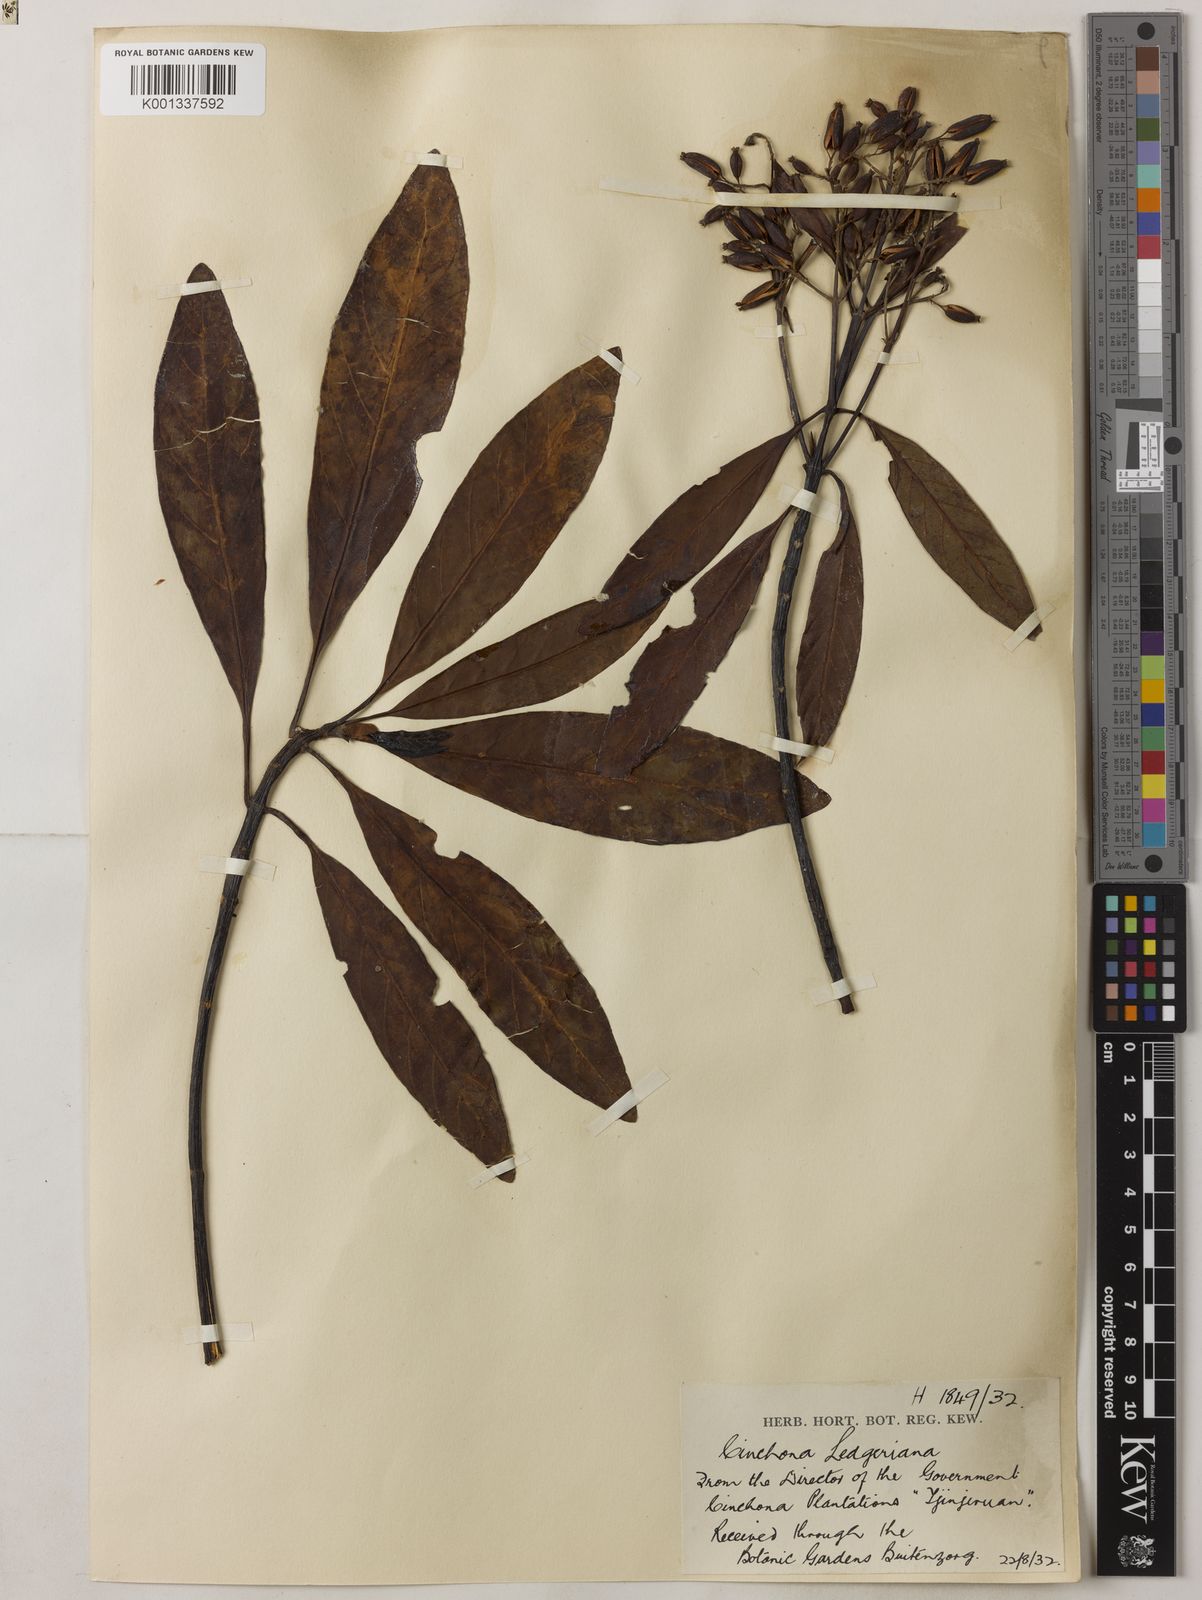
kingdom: Plantae
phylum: Tracheophyta
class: Magnoliopsida
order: Gentianales
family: Rubiaceae
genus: Cinchona
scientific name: Cinchona calisaya
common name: Ledgerbark
